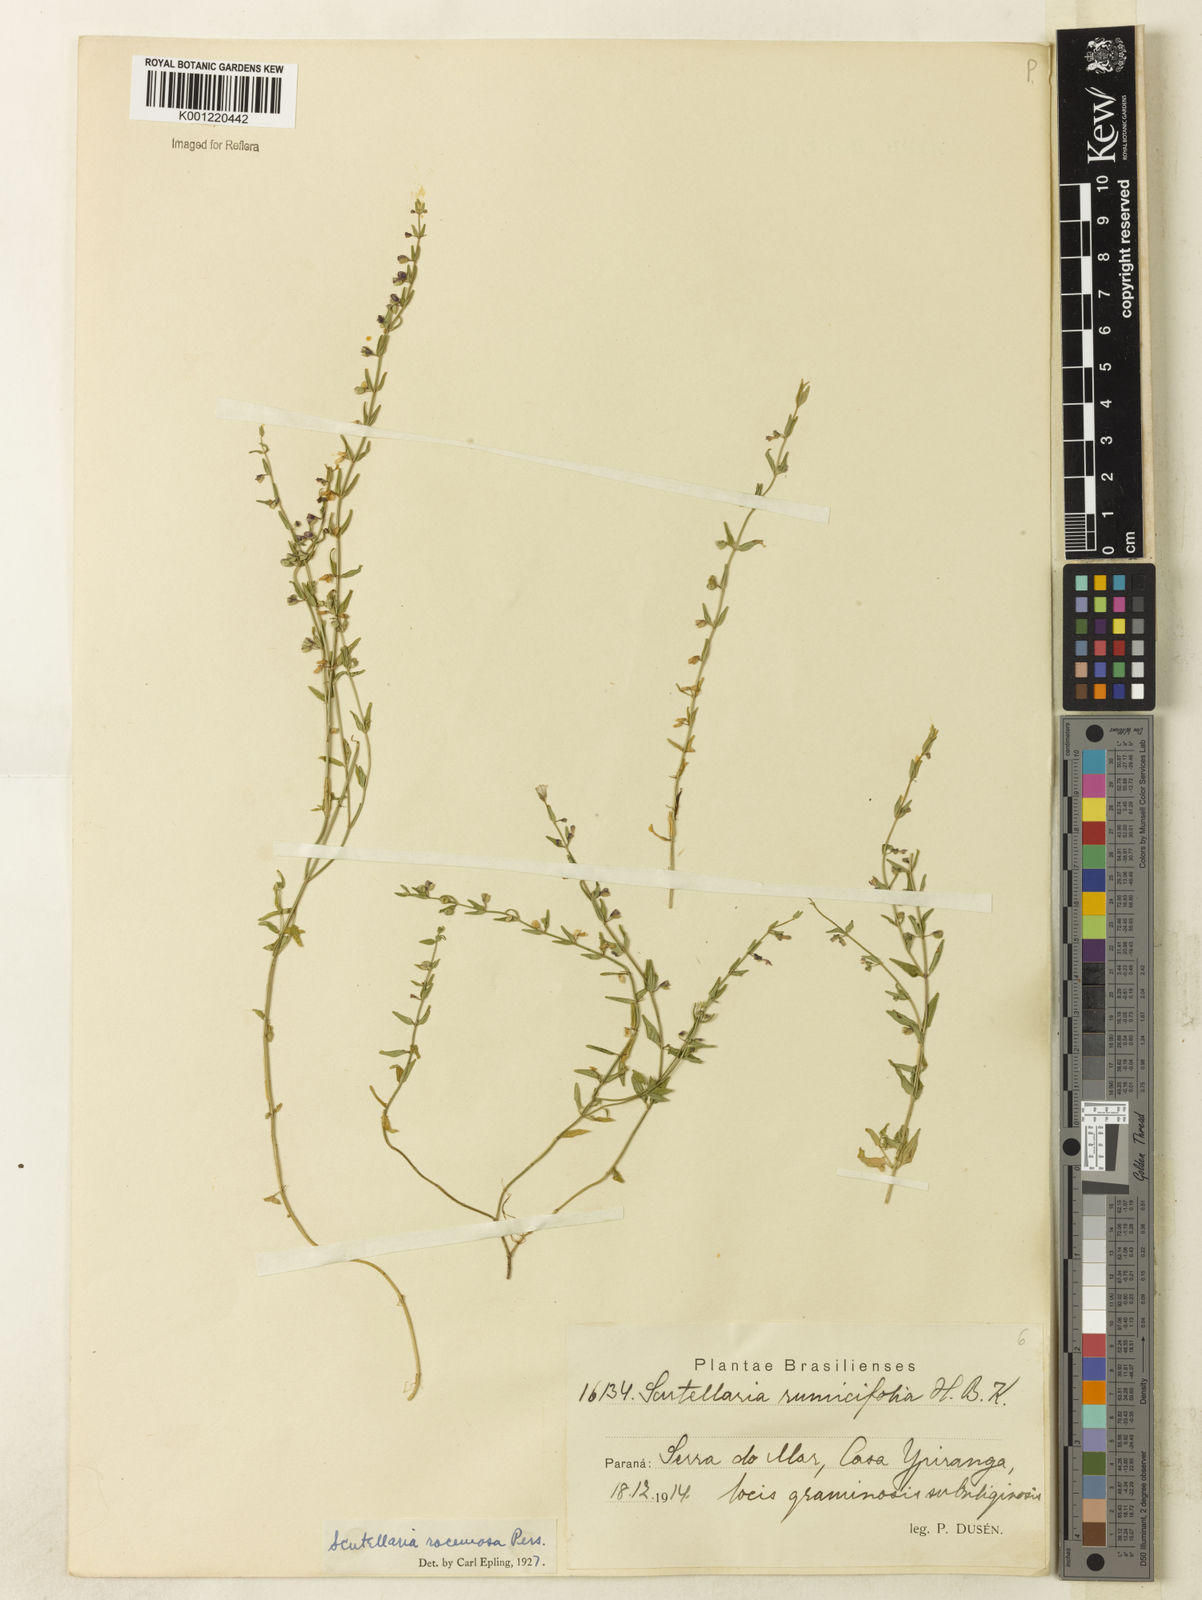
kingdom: Plantae
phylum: Tracheophyta
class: Magnoliopsida
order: Lamiales
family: Lamiaceae
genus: Scutellaria
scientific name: Scutellaria racemosa
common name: South american skullcap
